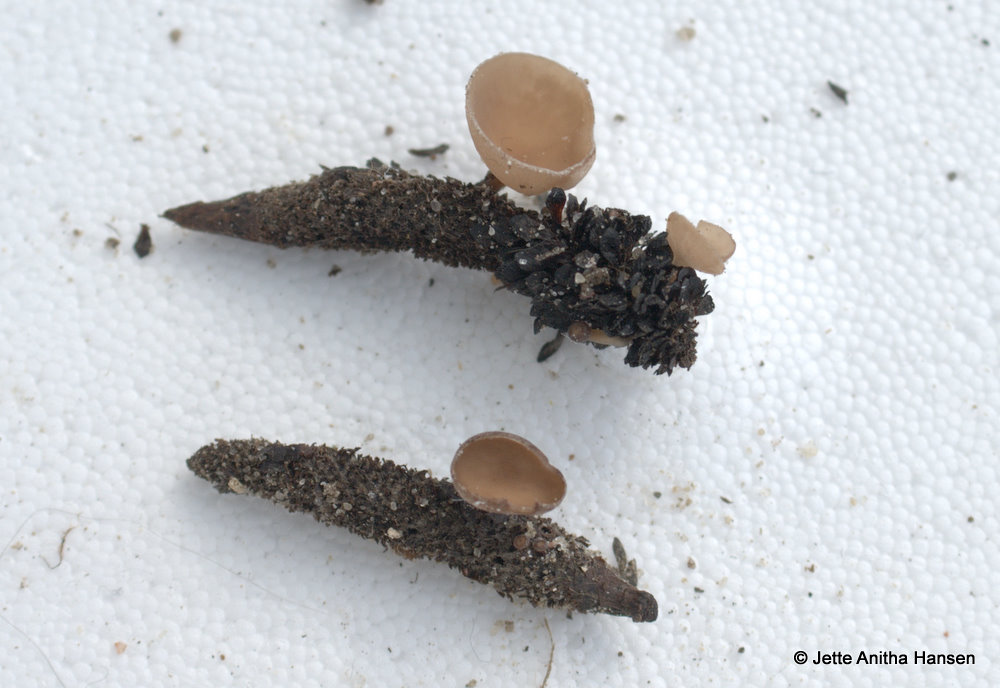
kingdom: Fungi
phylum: Ascomycota
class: Leotiomycetes
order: Helotiales
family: Sclerotiniaceae
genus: Ciboria
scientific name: Ciboria caucus
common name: rakle-knoldskive
